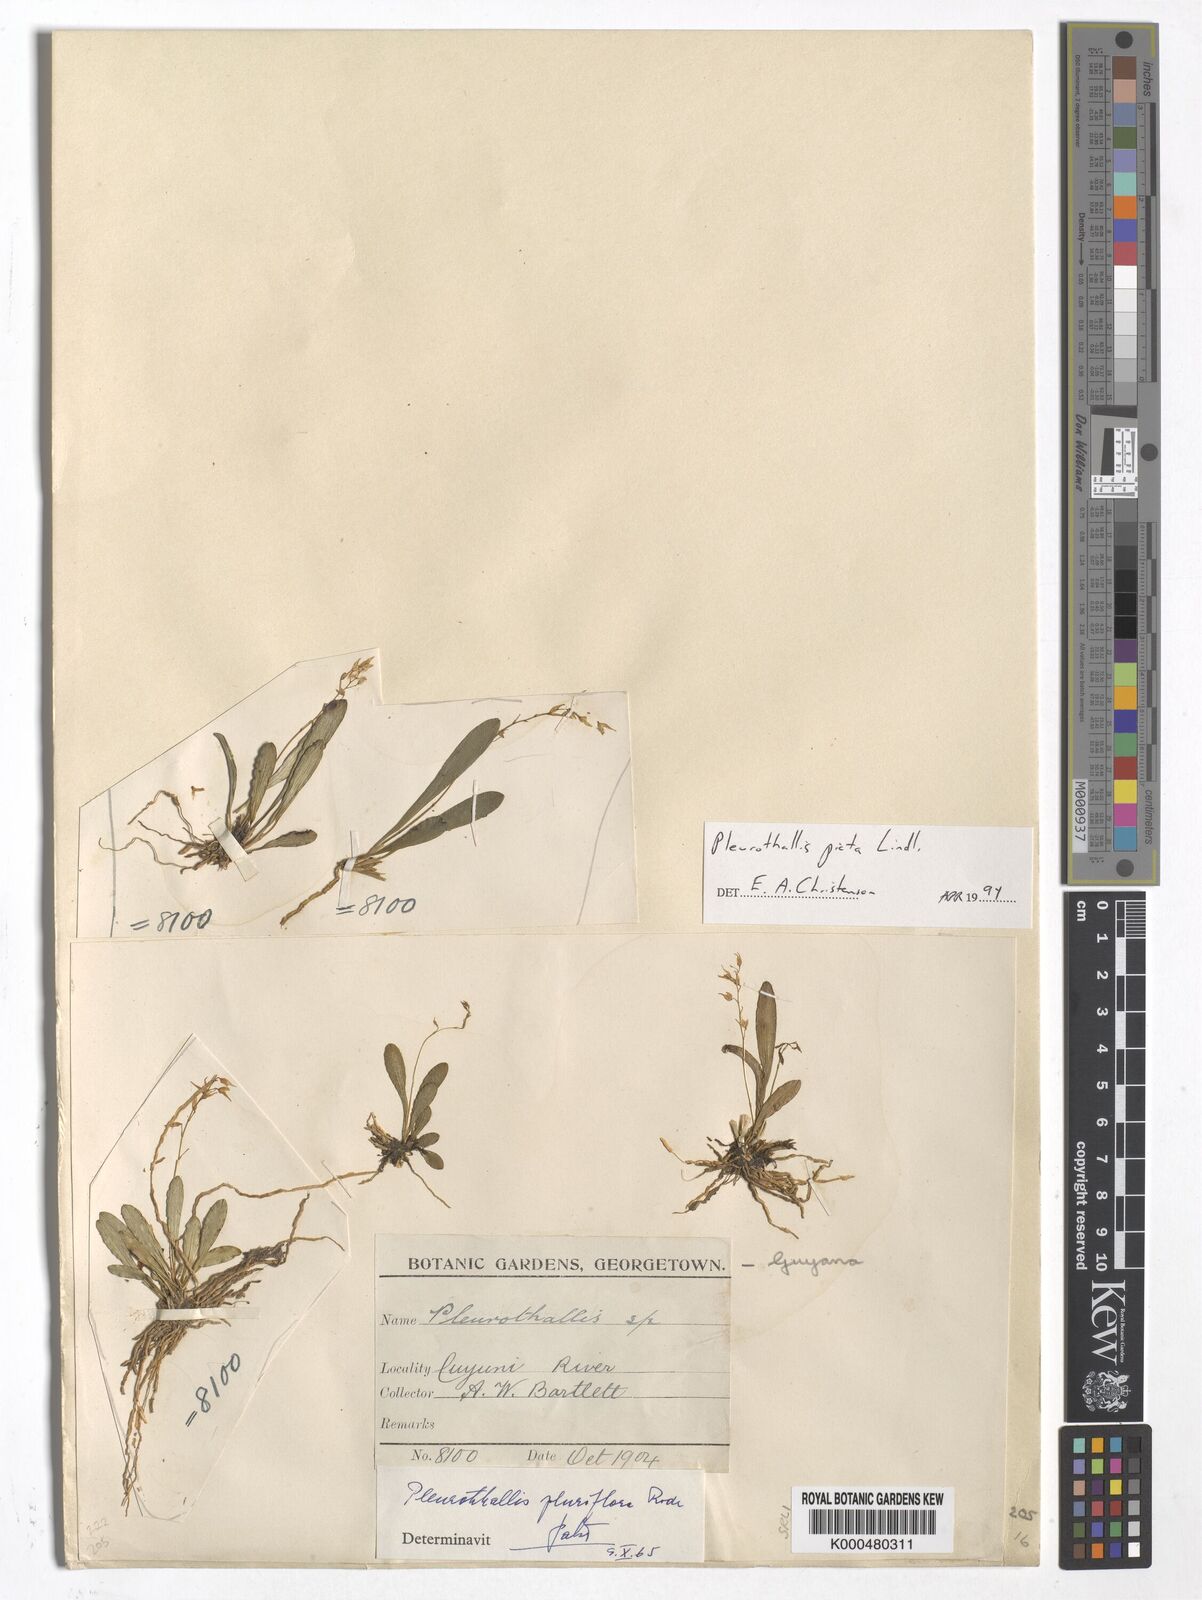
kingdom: Plantae
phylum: Tracheophyta
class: Liliopsida
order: Asparagales
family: Orchidaceae
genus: Specklinia
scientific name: Specklinia picta
